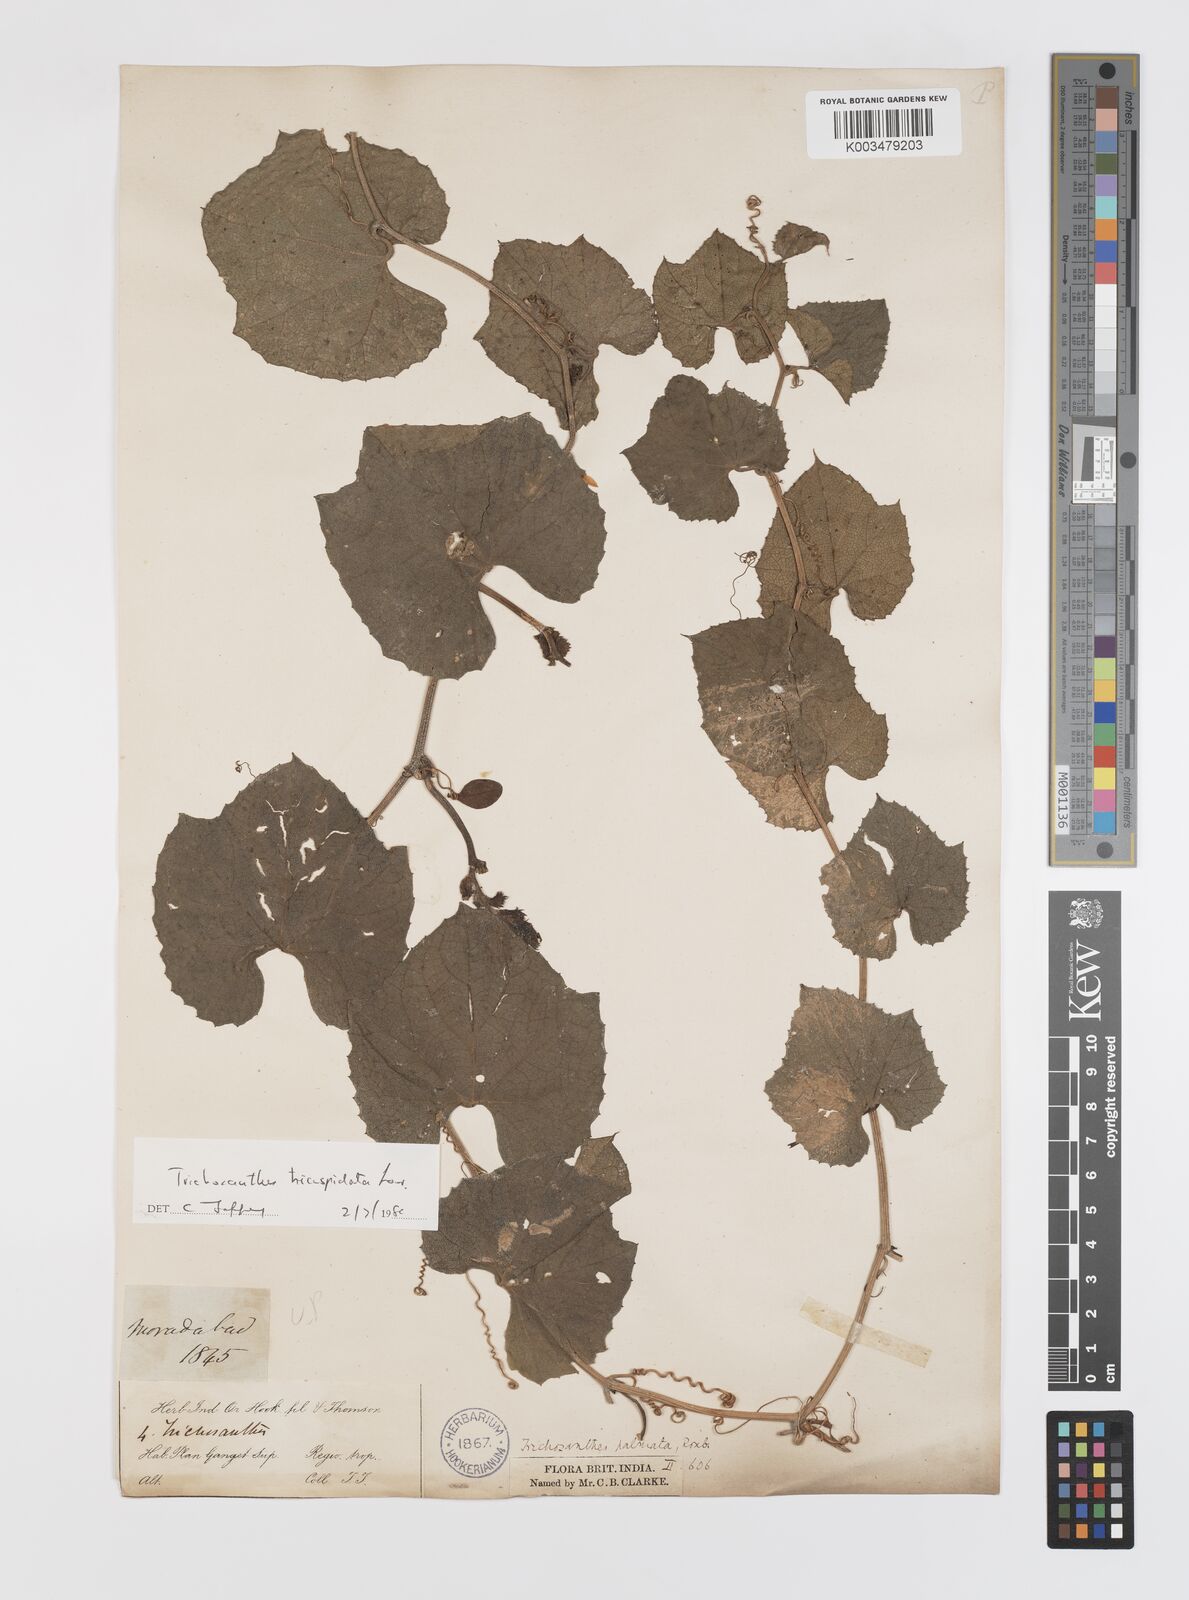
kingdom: Plantae
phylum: Tracheophyta
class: Magnoliopsida
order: Cucurbitales
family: Cucurbitaceae
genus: Trichosanthes
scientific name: Trichosanthes tricuspidata
